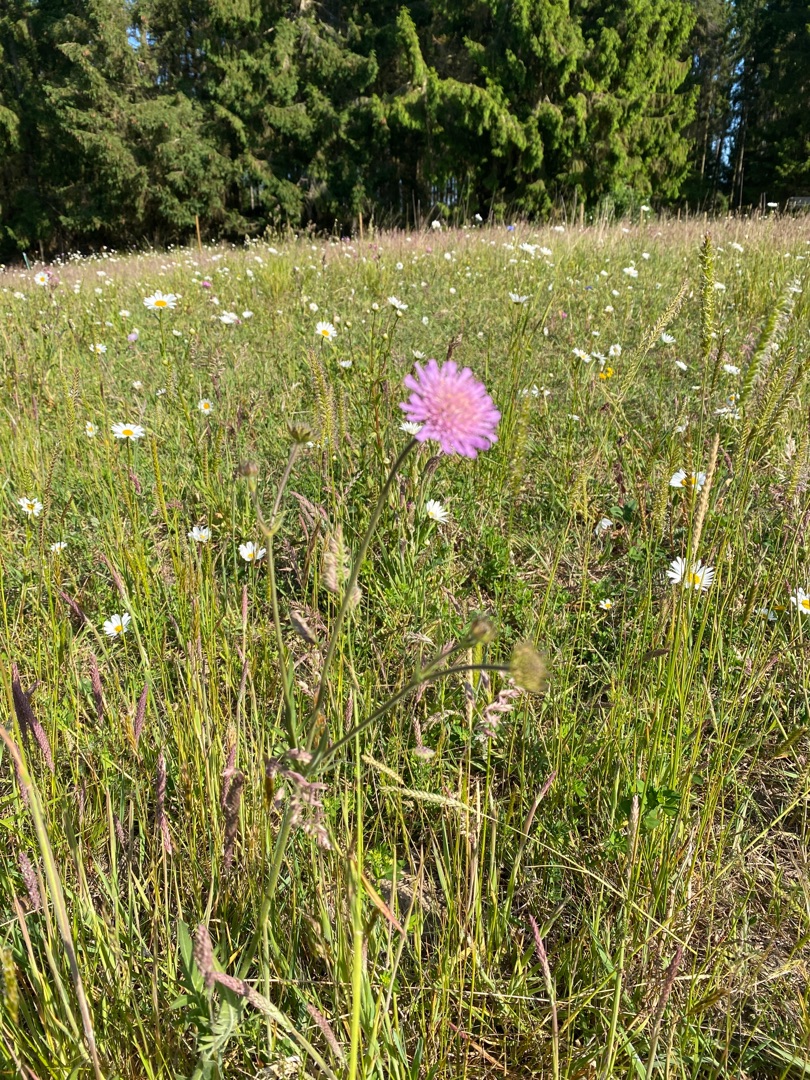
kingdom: Plantae
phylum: Tracheophyta
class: Magnoliopsida
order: Dipsacales
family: Caprifoliaceae
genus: Knautia
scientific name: Knautia arvensis
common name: Blåhat
